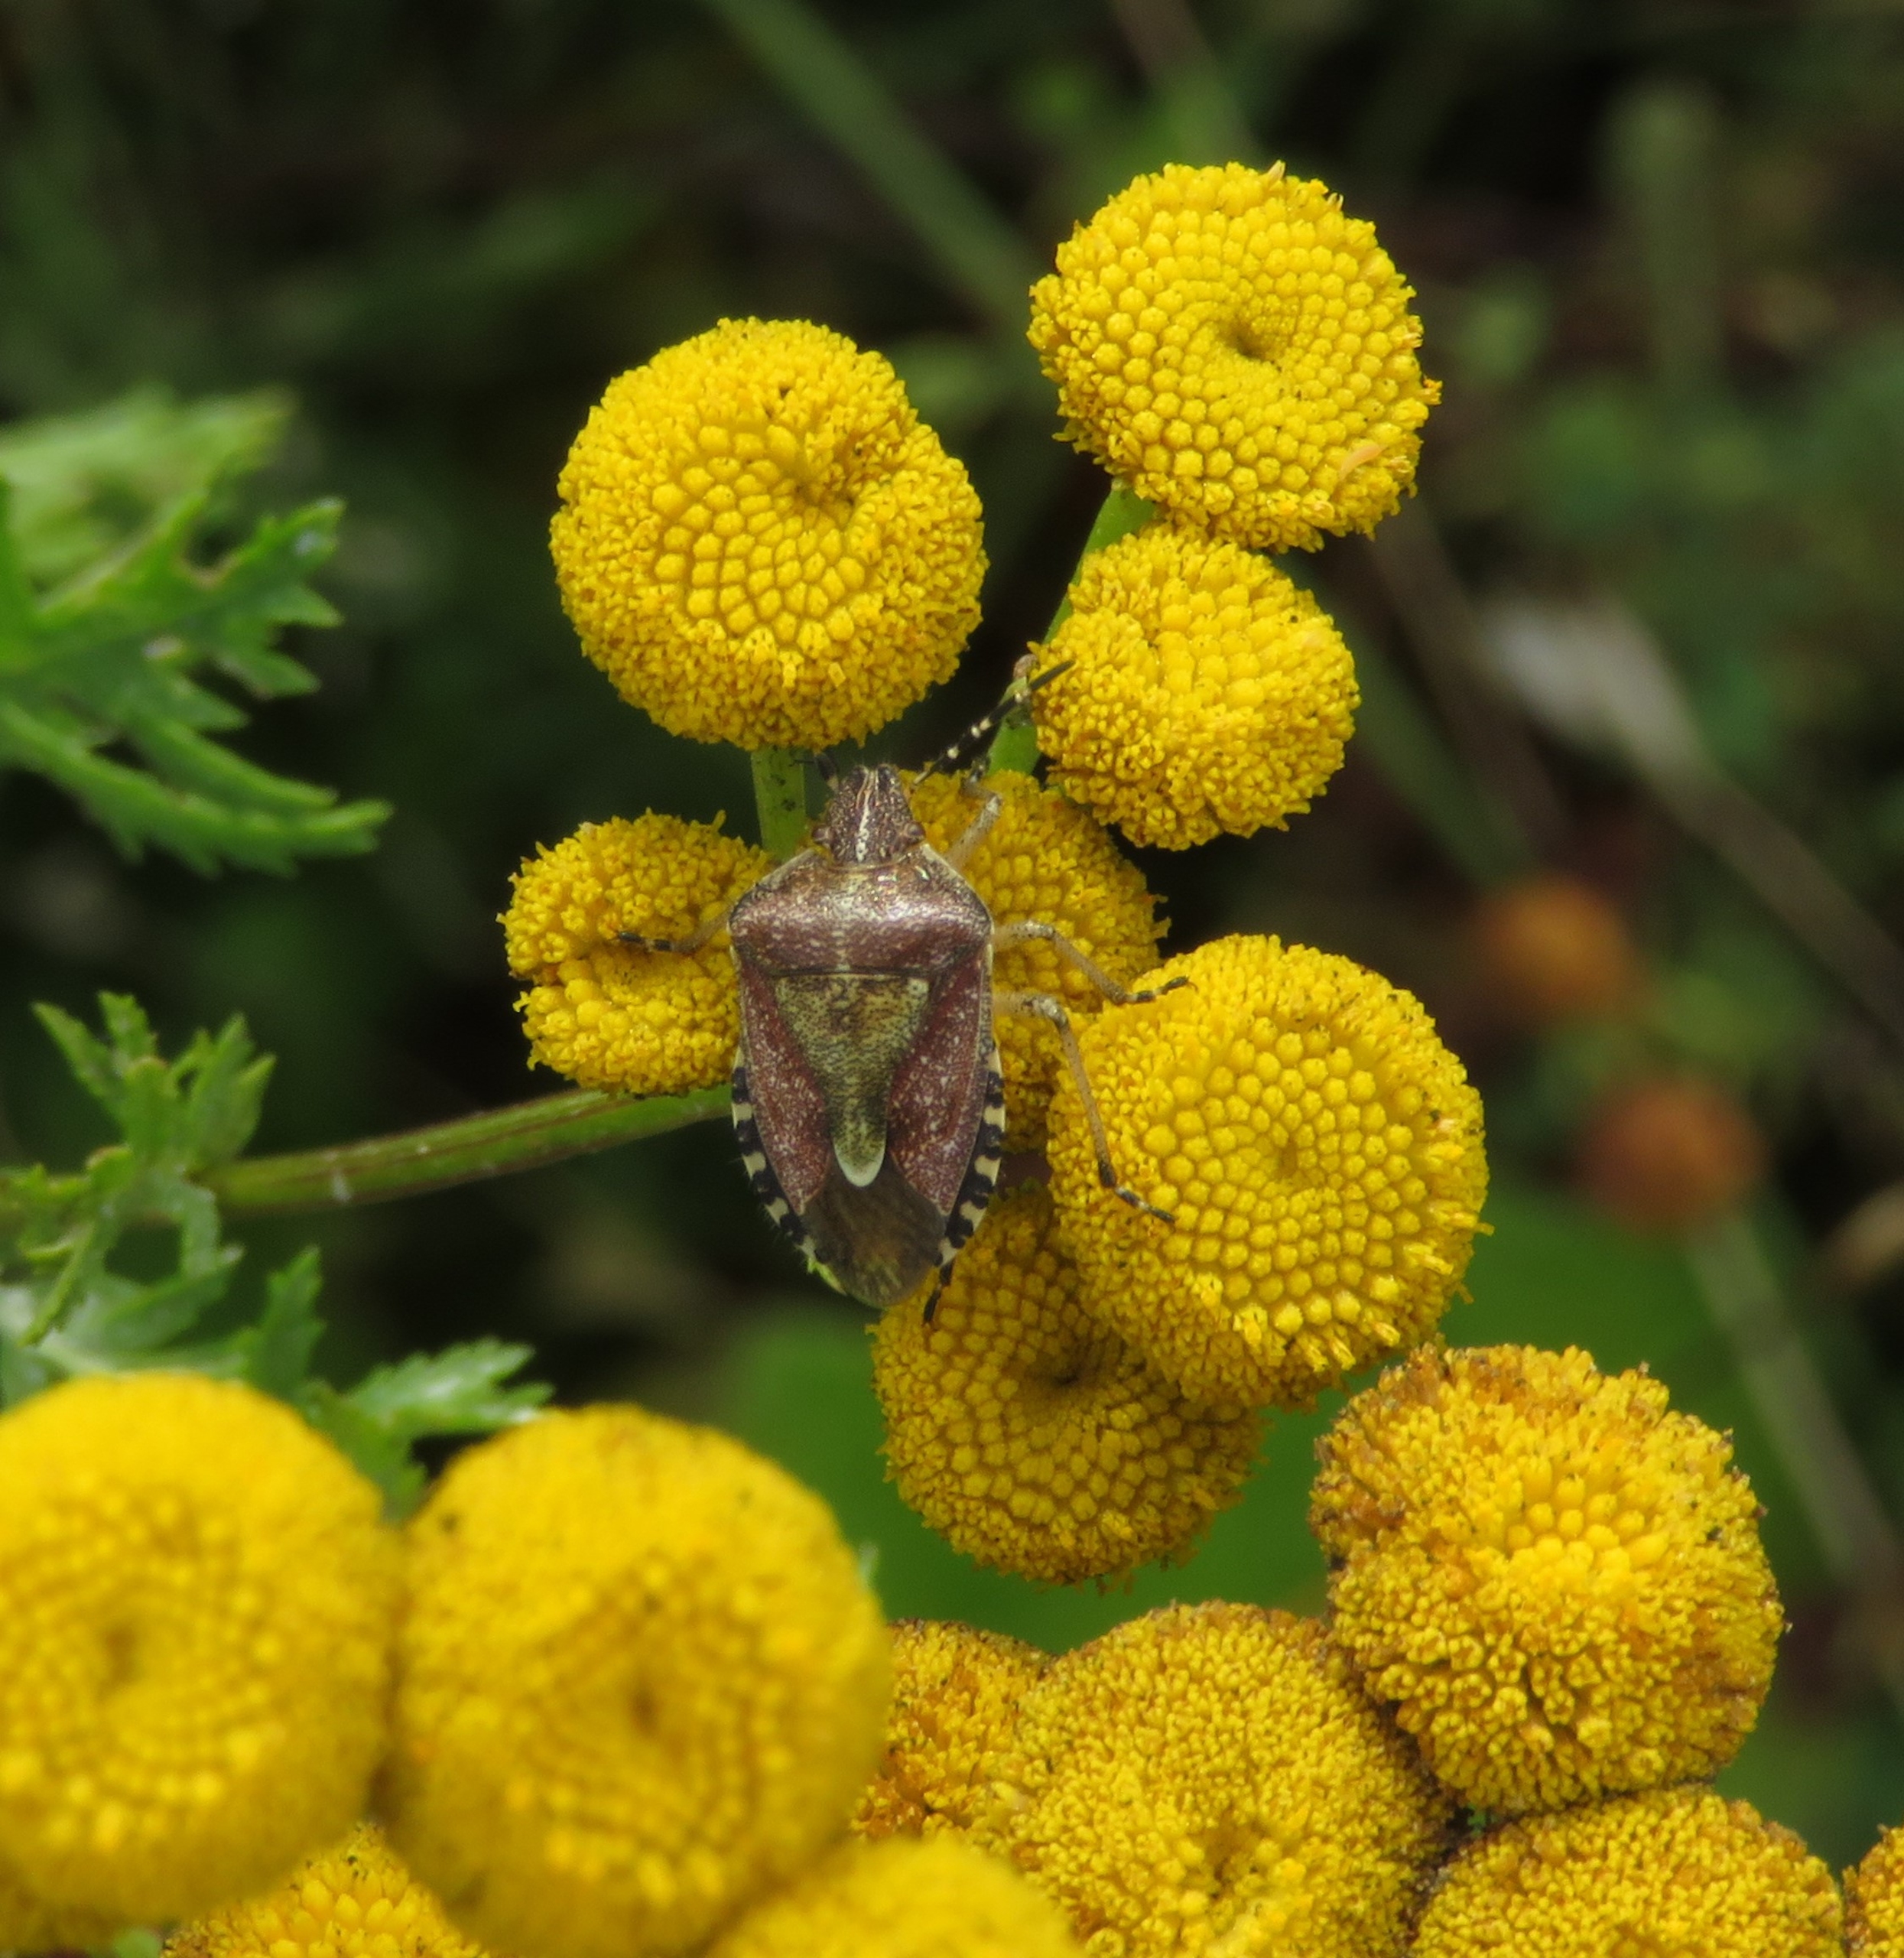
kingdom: Animalia
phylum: Arthropoda
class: Insecta
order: Hemiptera
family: Pentatomidae
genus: Dolycoris
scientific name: Dolycoris baccarum
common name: Almindelig bærtæge
